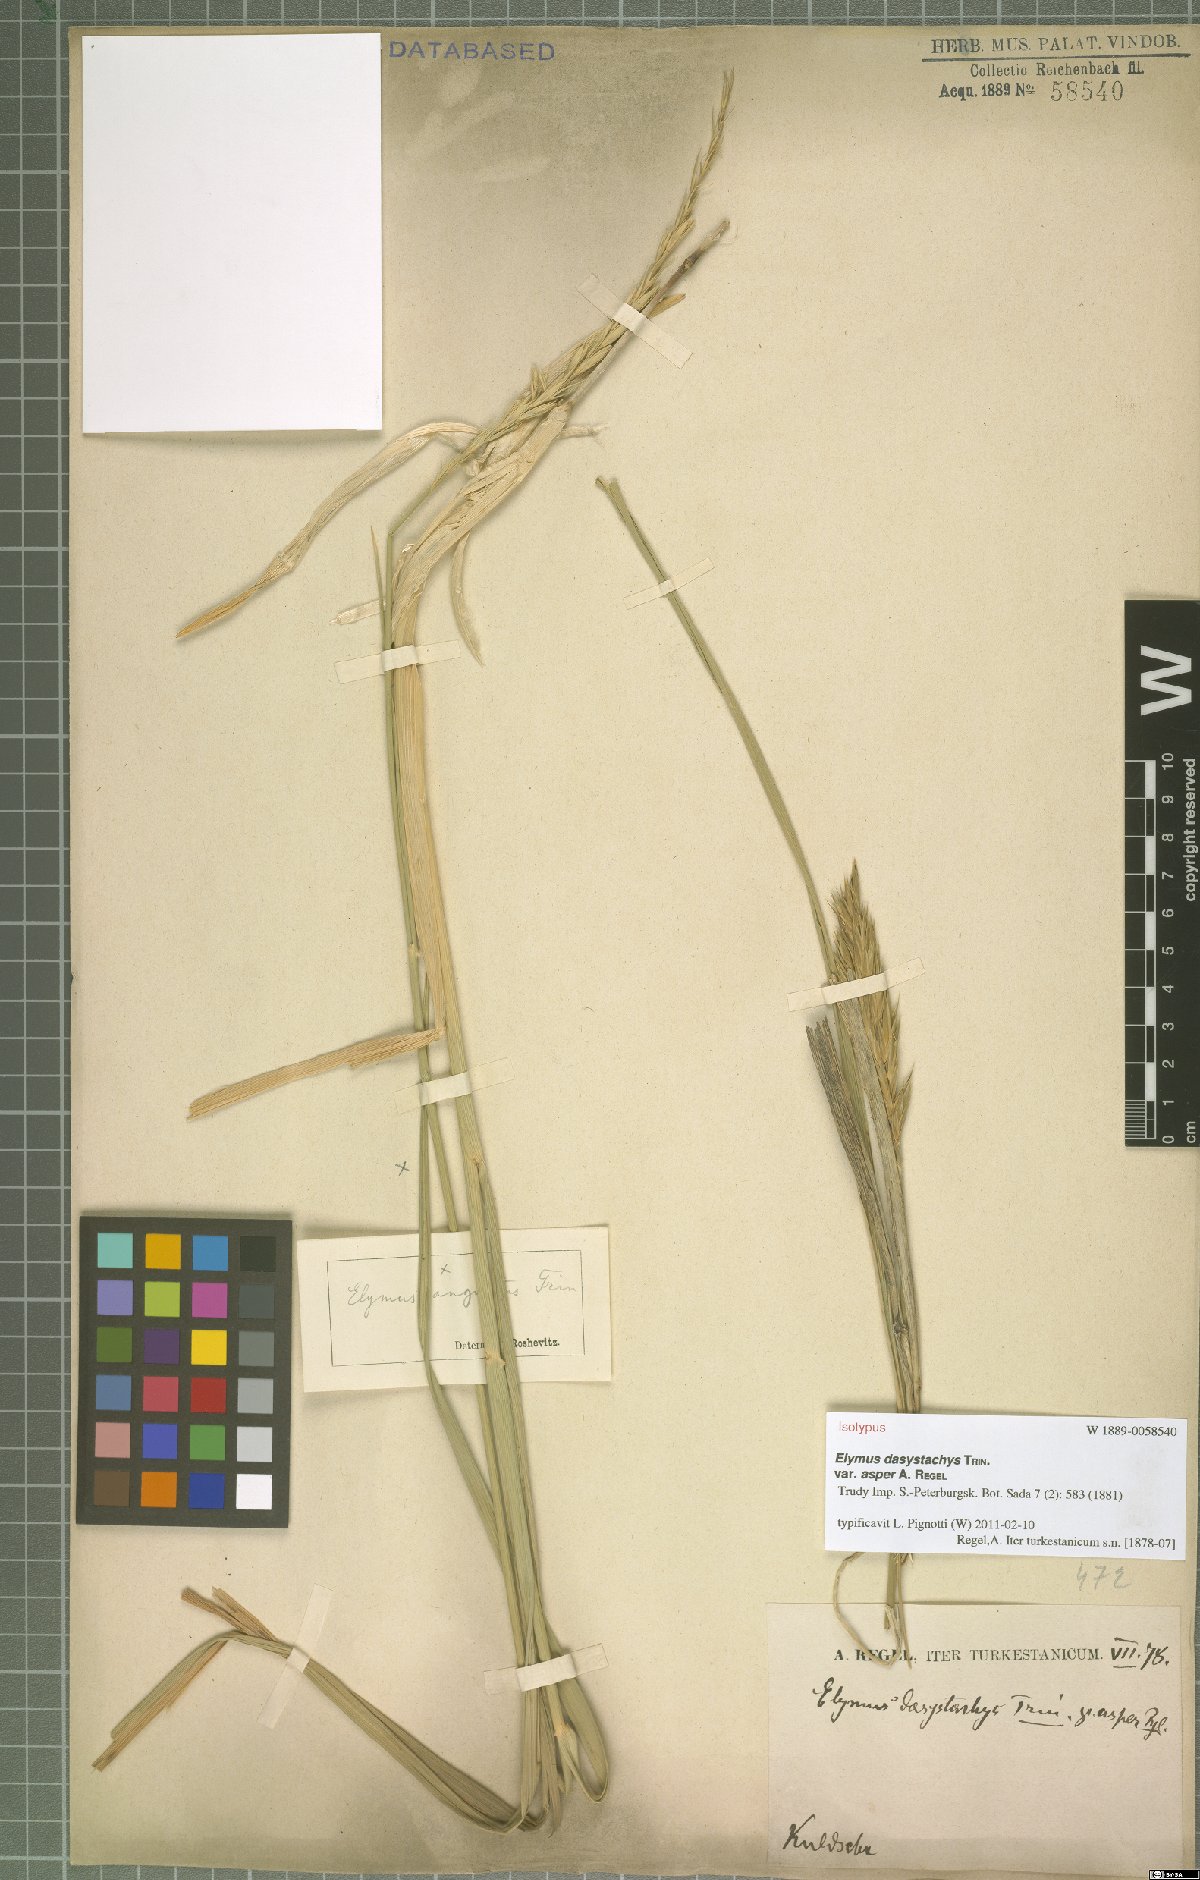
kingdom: Plantae
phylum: Tracheophyta
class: Liliopsida
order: Poales
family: Poaceae
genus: Leymus
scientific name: Leymus secalinus
